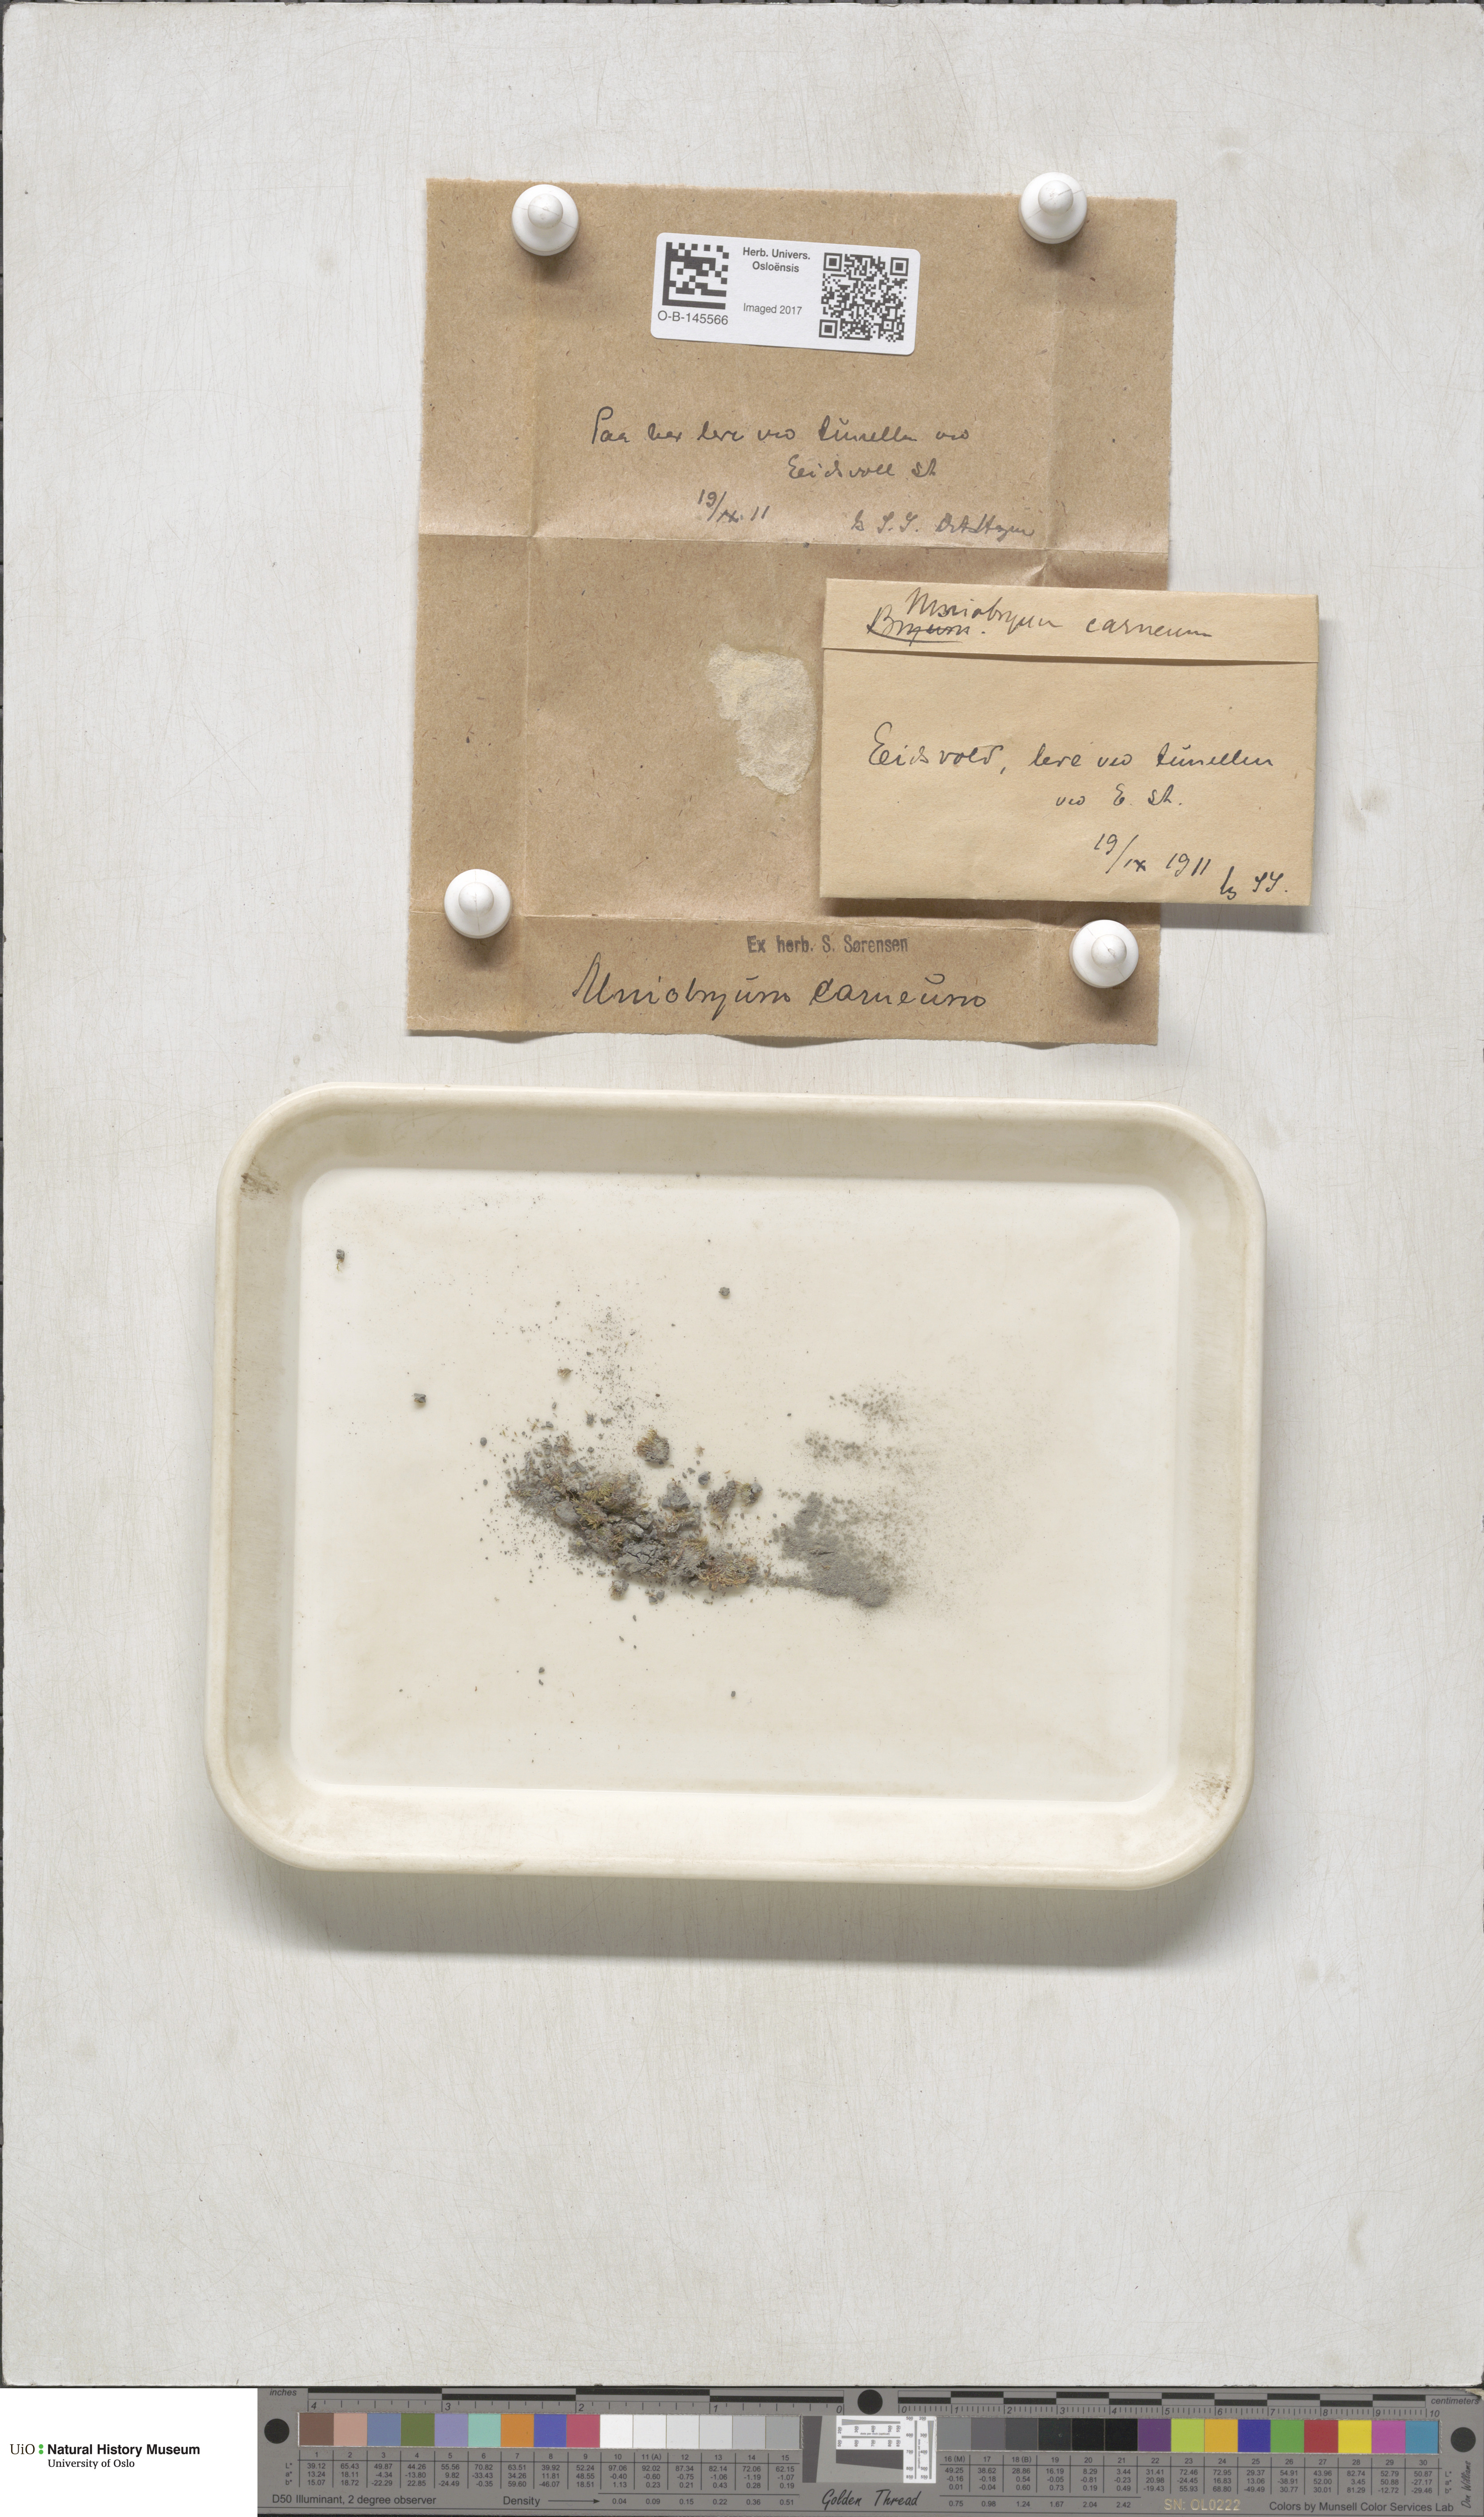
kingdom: Plantae
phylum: Bryophyta
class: Bryopsida
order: Bryales
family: Mniaceae
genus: Pohlia
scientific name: Pohlia melanodon
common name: Black-toothed nodding moss
